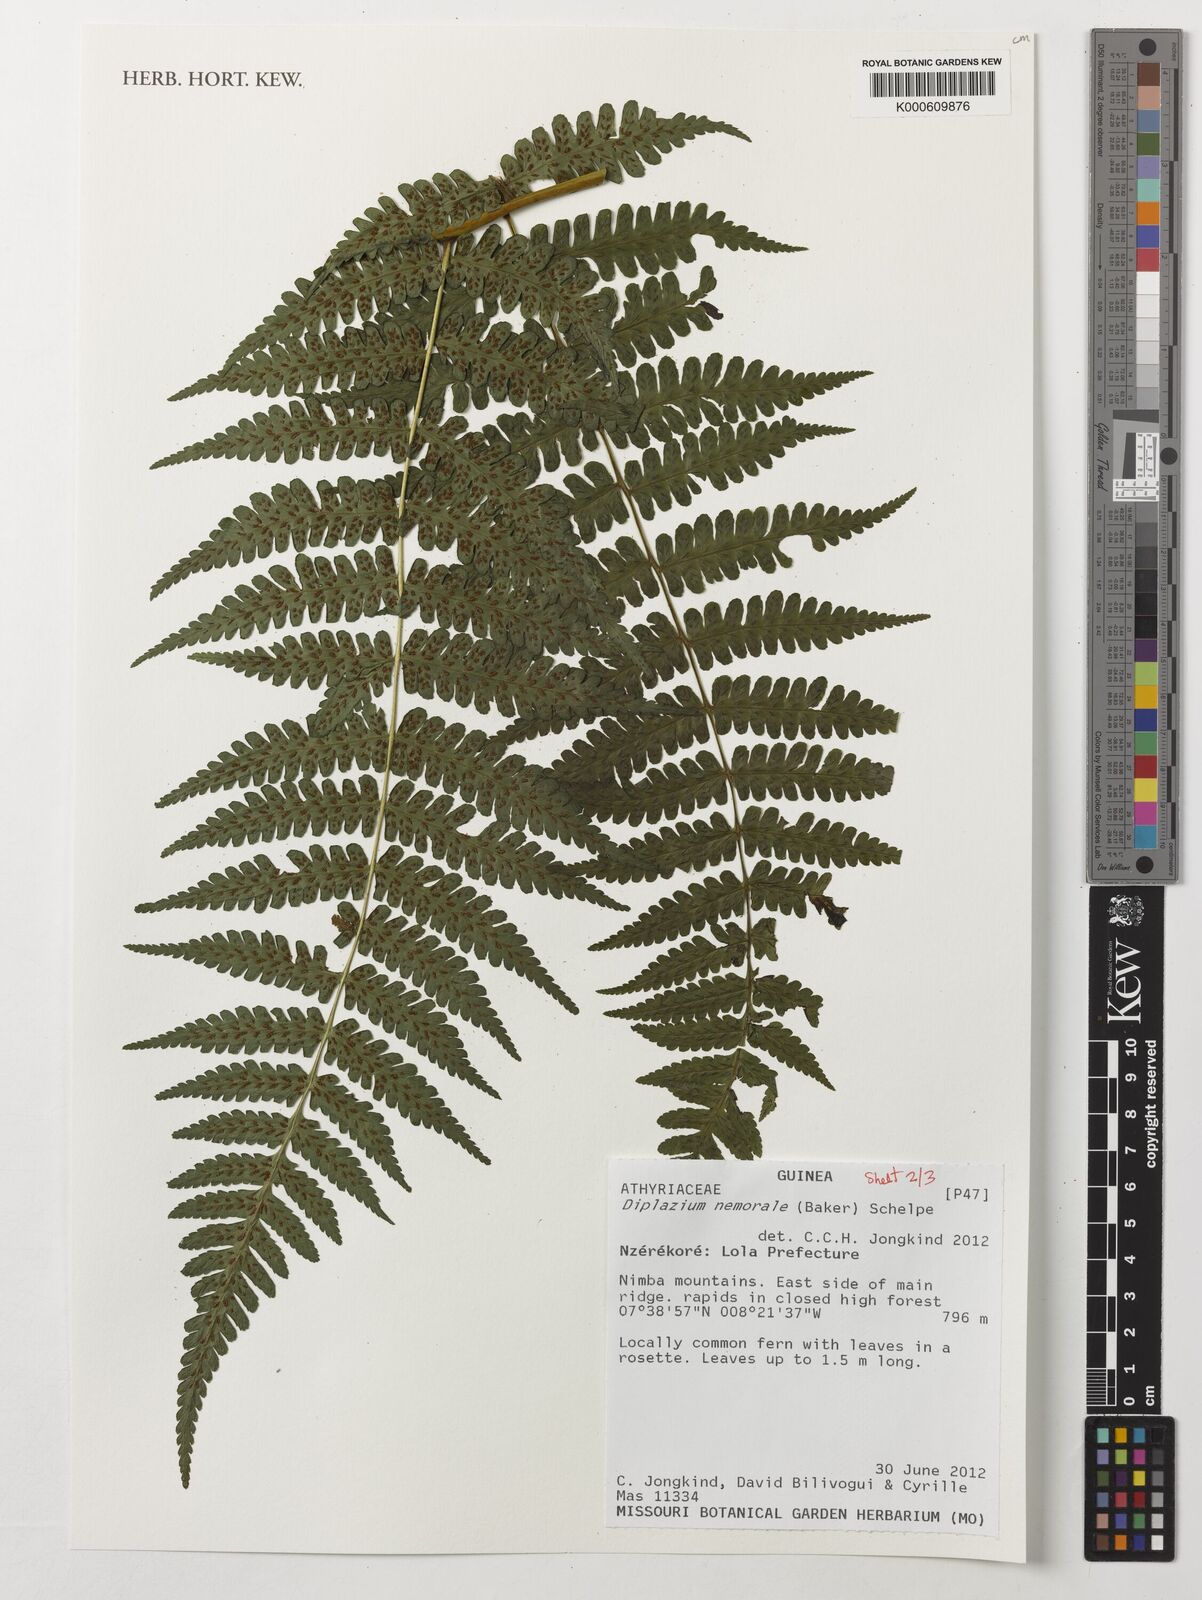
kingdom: Plantae
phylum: Tracheophyta
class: Polypodiopsida
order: Polypodiales
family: Athyriaceae
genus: Diplazium
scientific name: Diplazium nemorale
